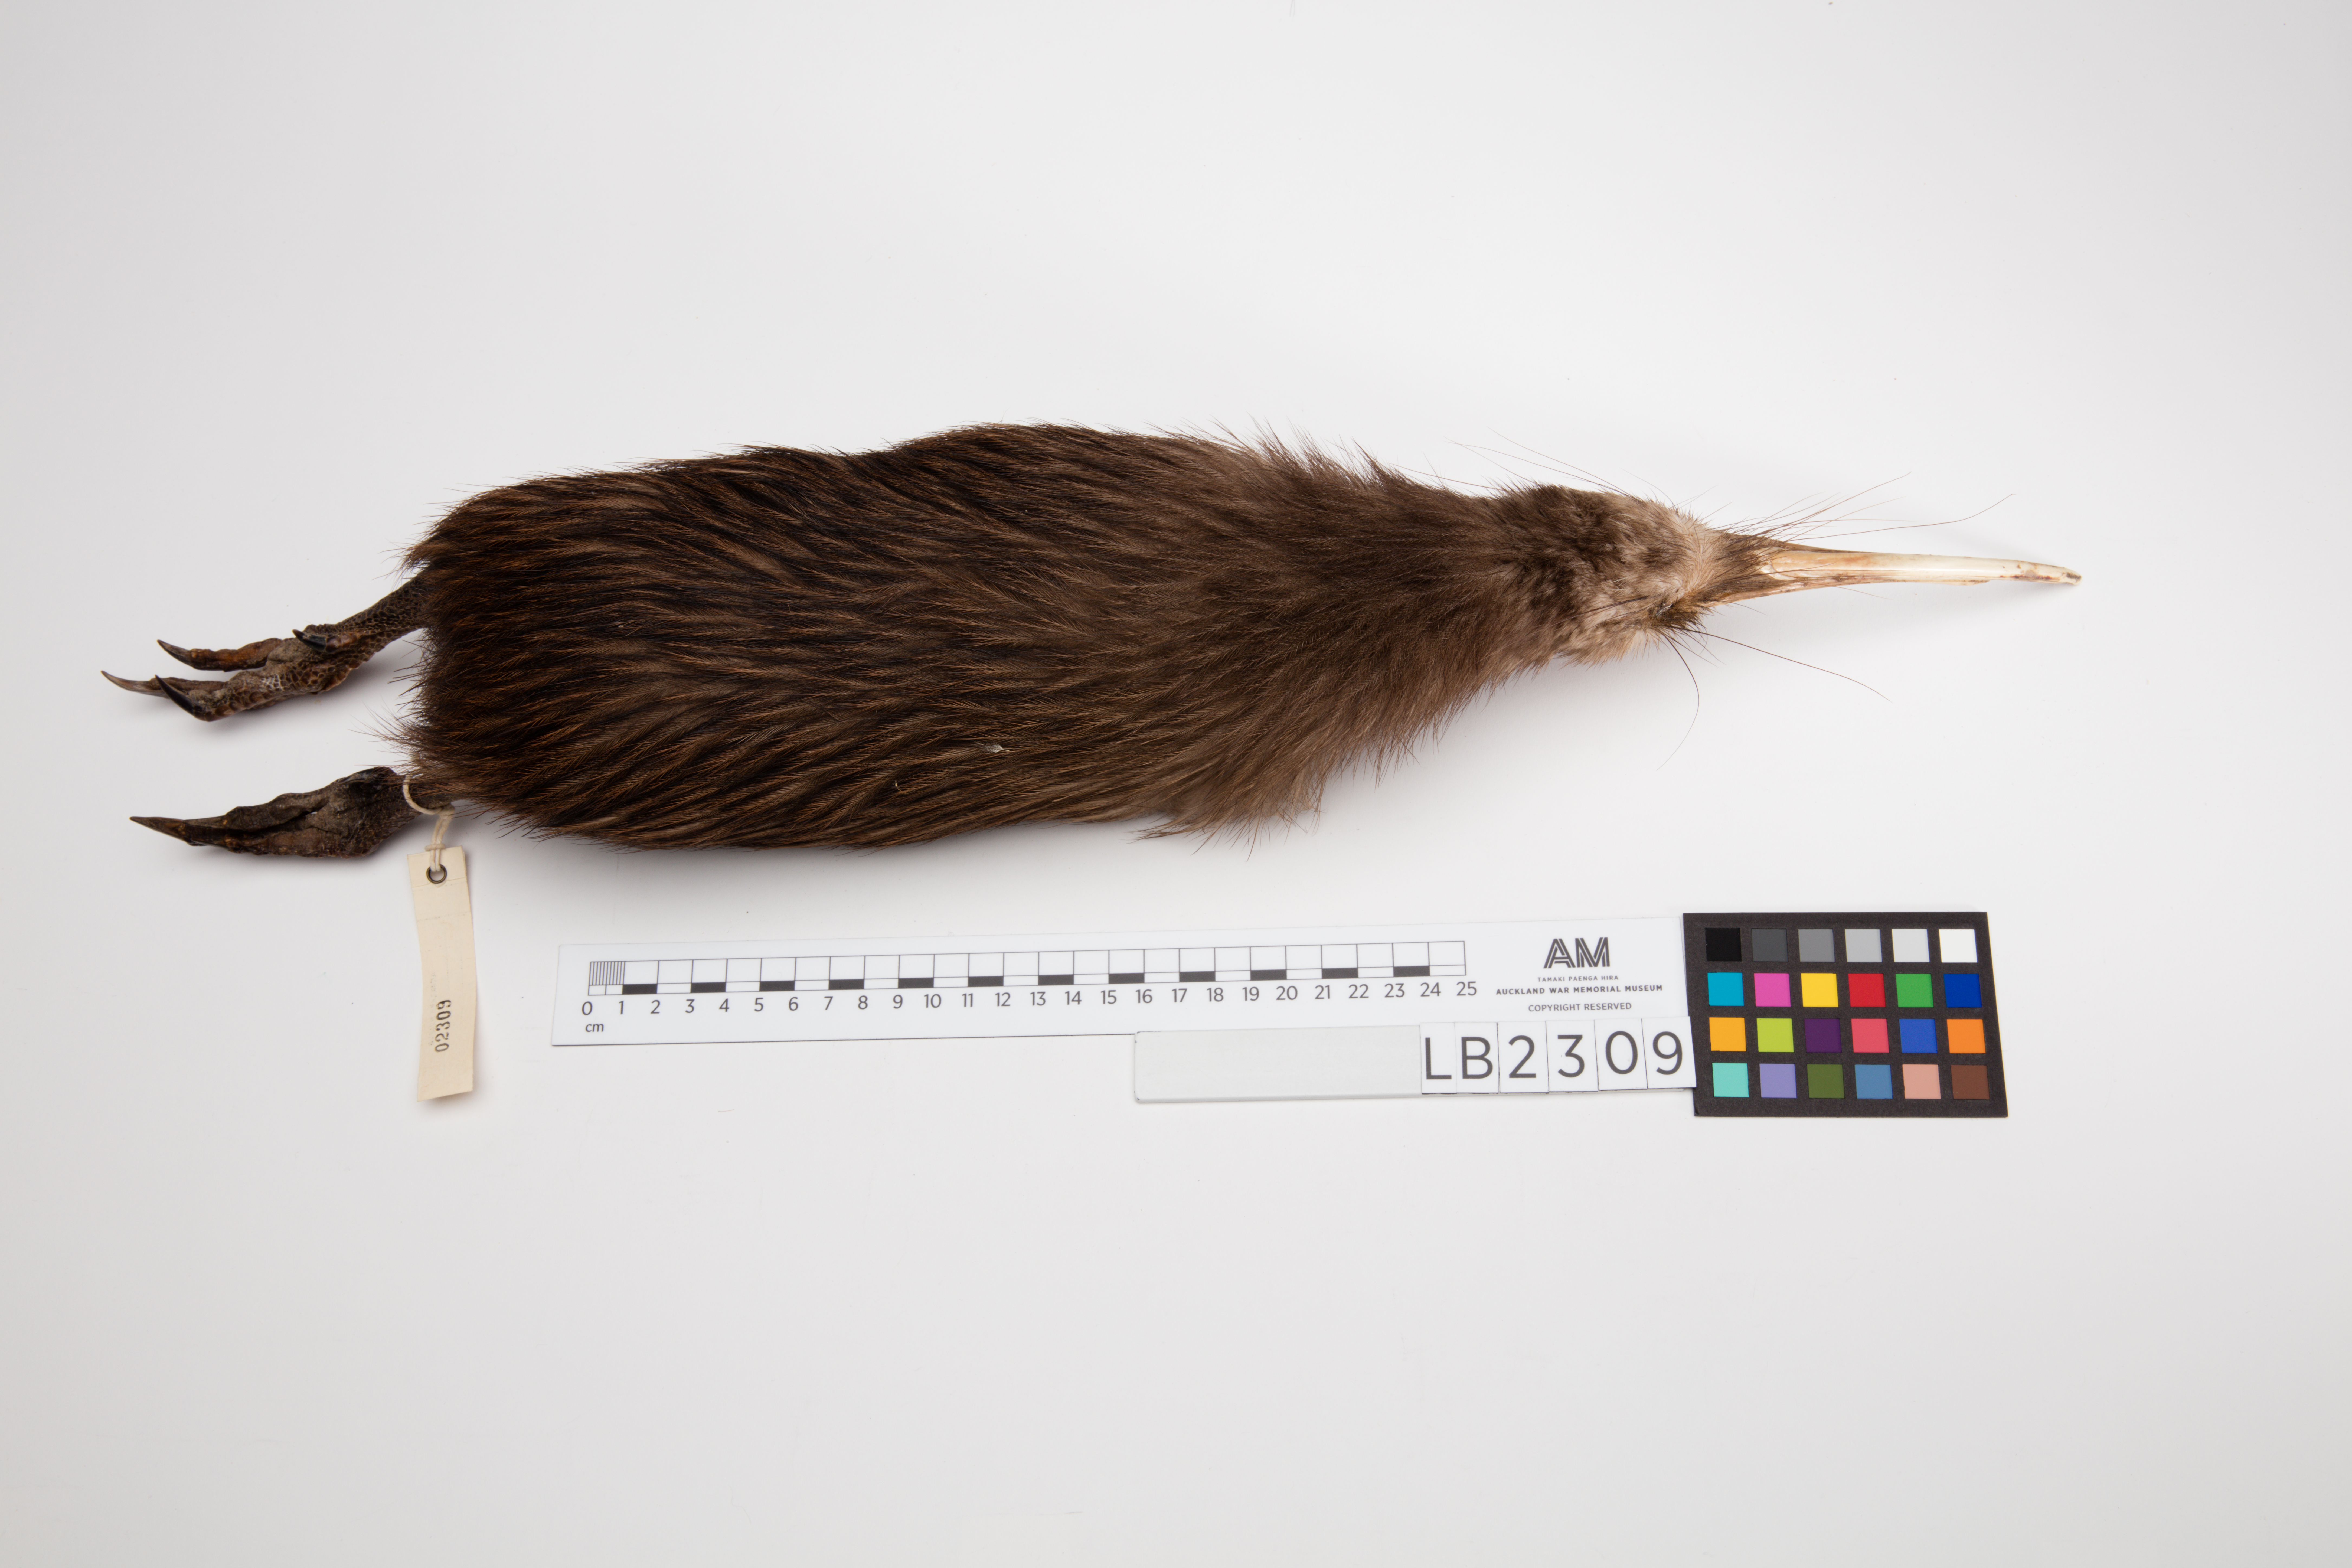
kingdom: Animalia
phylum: Chordata
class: Aves
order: Apterygiformes
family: Apterygidae
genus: Apteryx
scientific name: Apteryx mantelli
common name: North island brown kiwi
